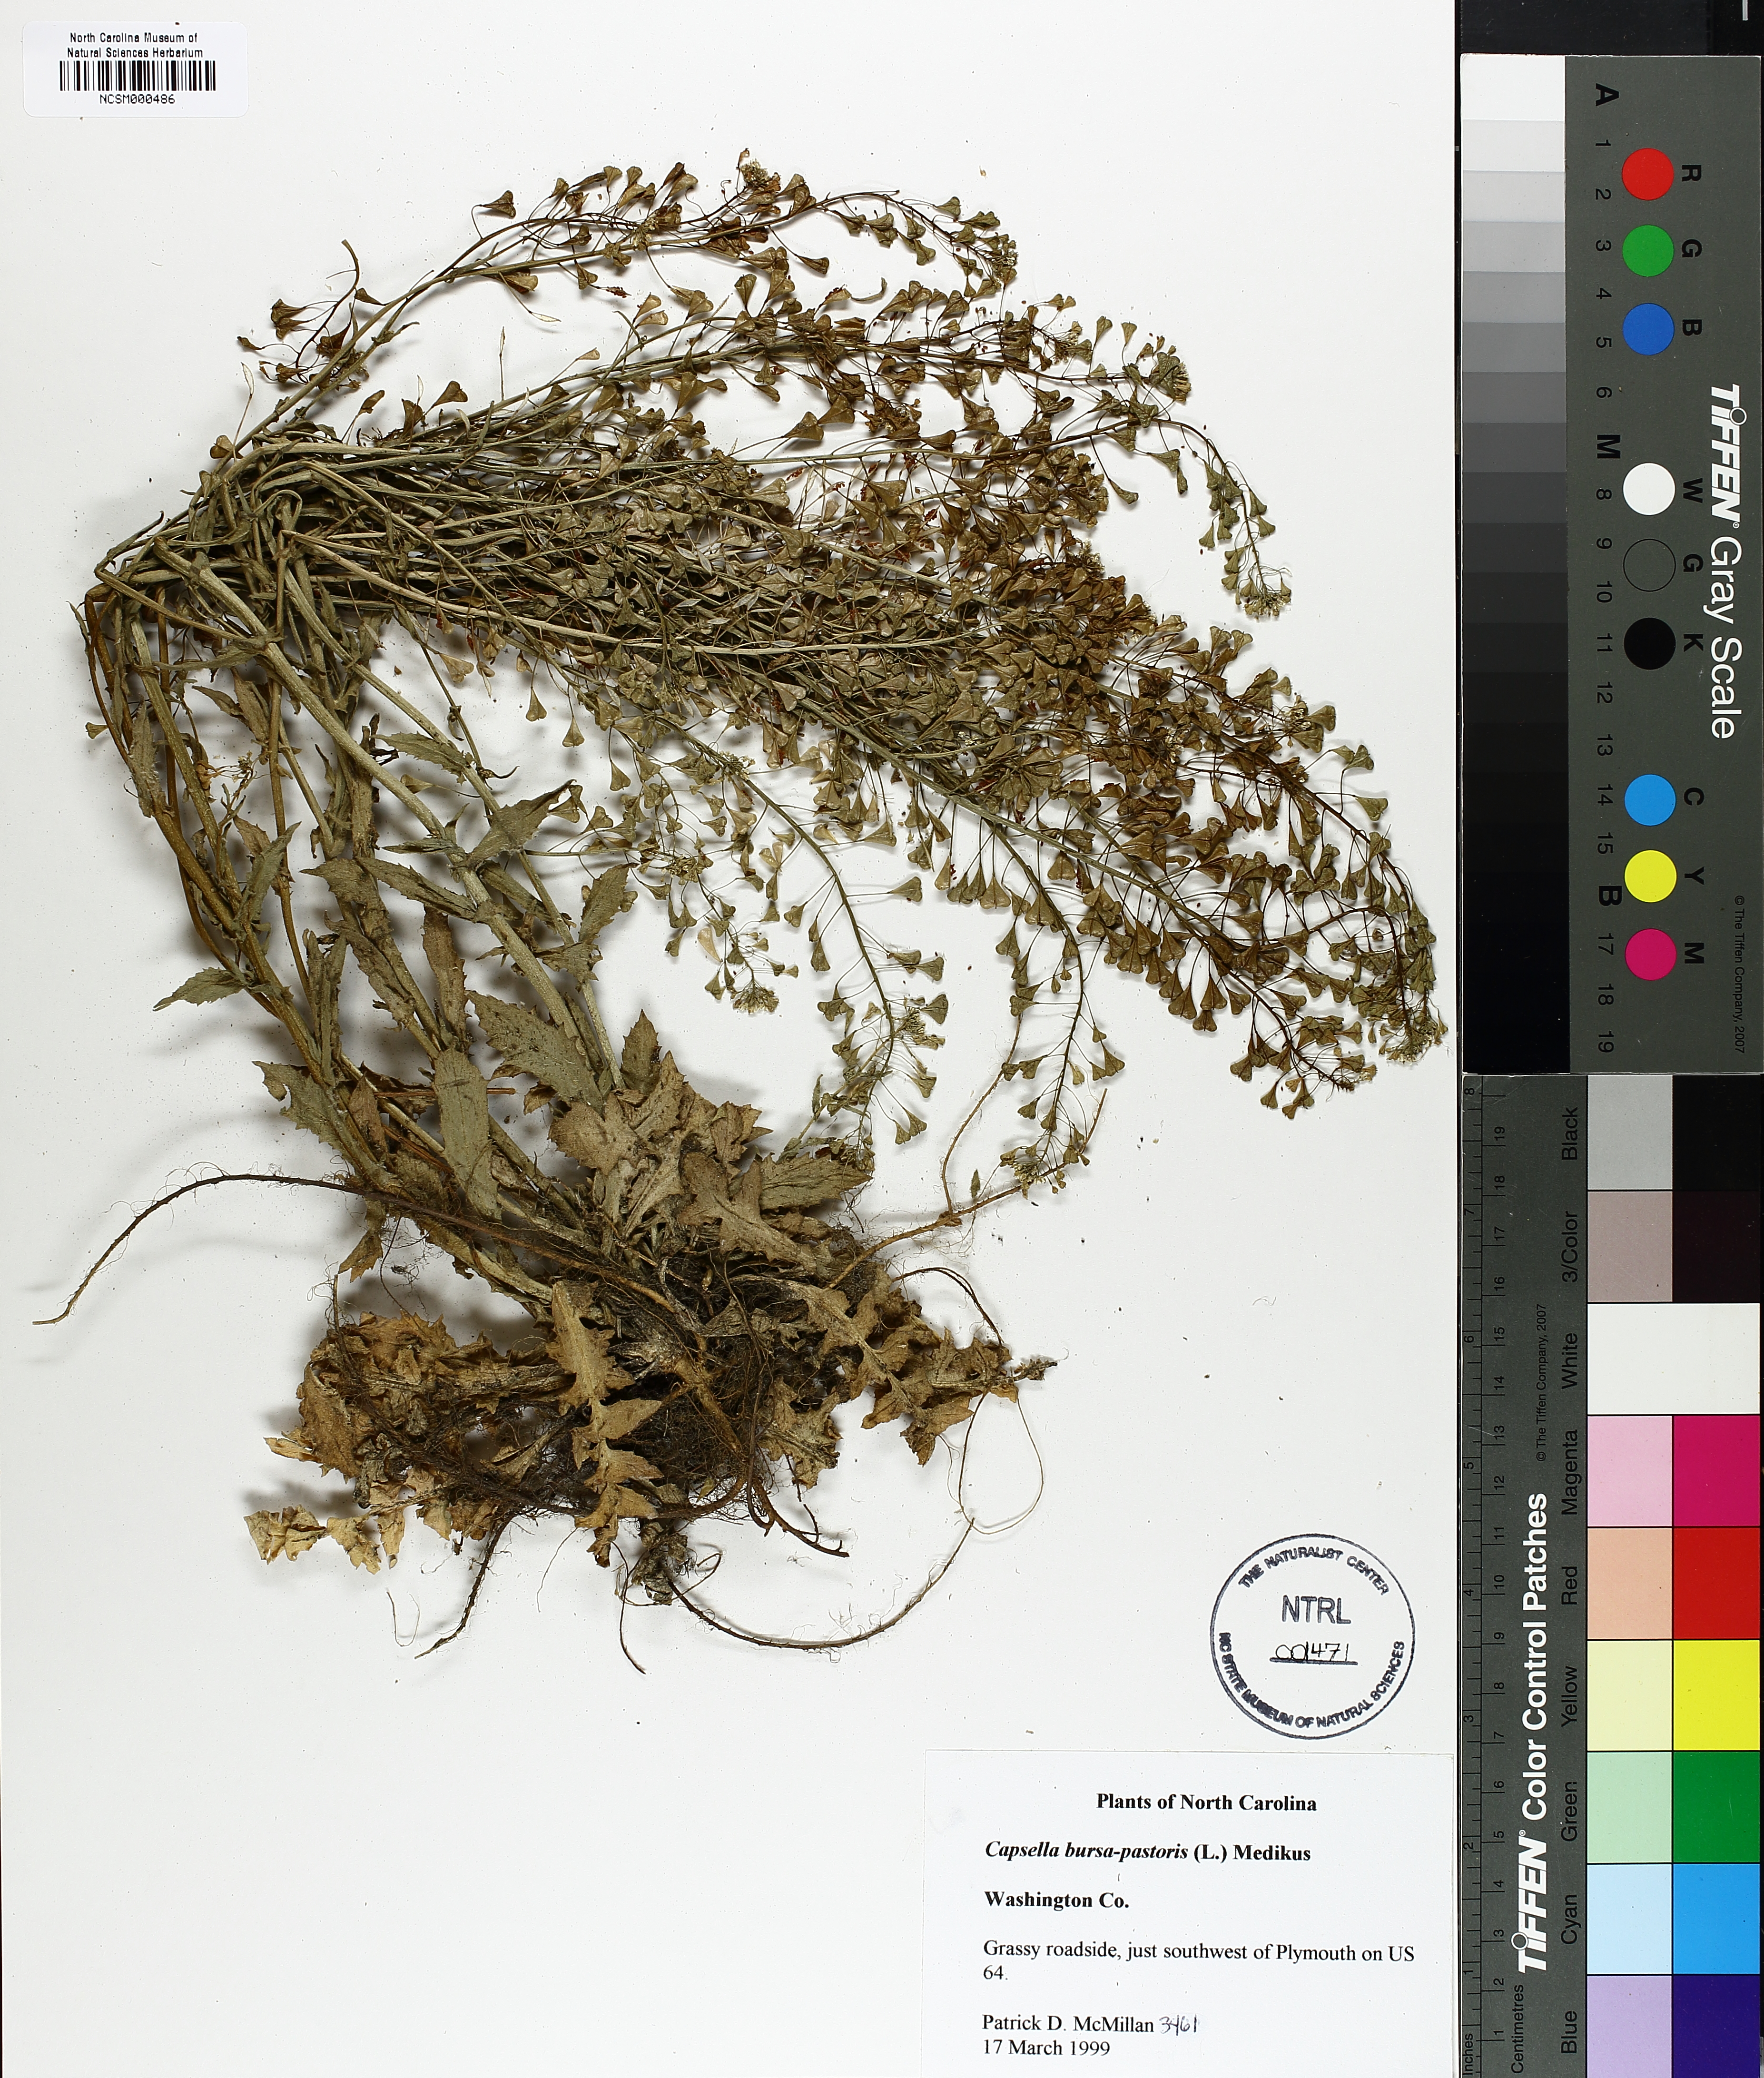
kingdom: Plantae
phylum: Tracheophyta
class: Magnoliopsida
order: Brassicales
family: Brassicaceae
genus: Capsella
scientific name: Capsella bursa-pastoris
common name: Shepherd's purse
